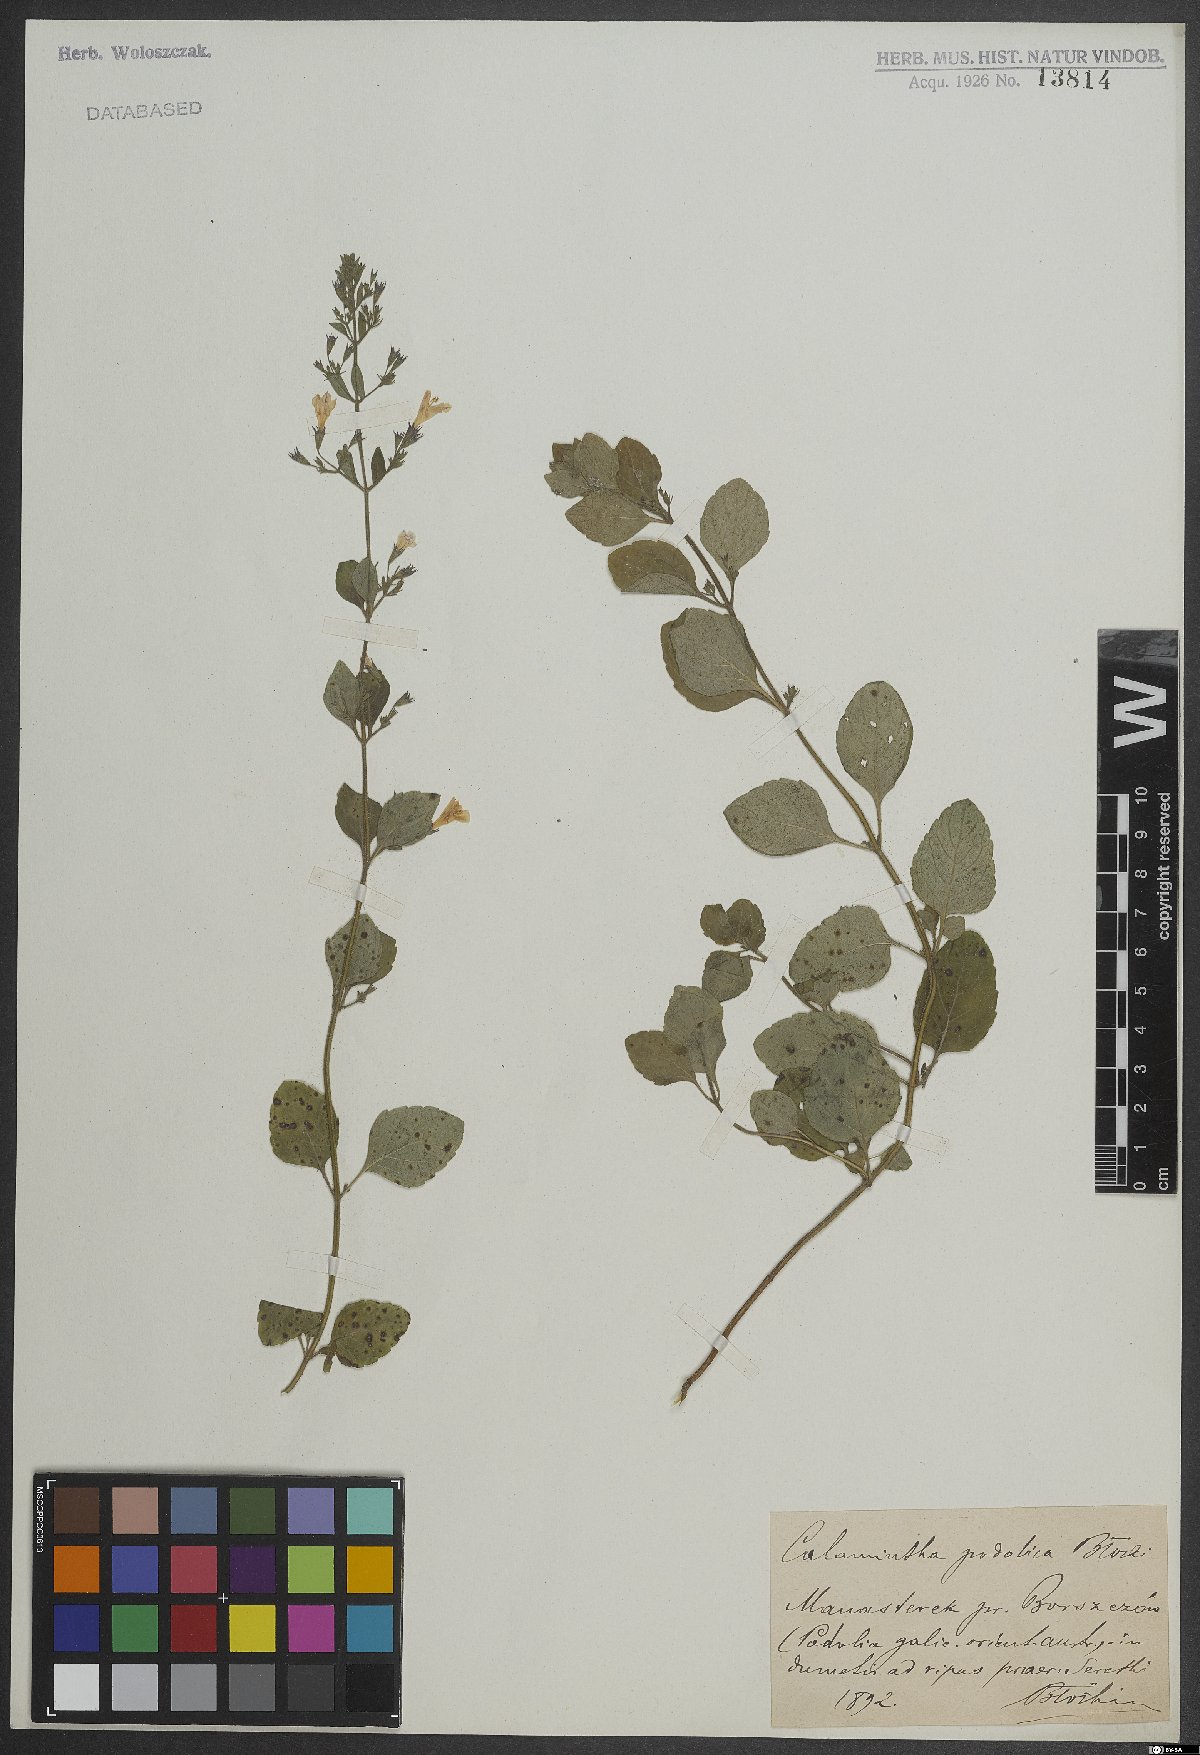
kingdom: Plantae
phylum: Tracheophyta
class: Magnoliopsida
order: Lamiales
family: Lamiaceae
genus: Calamintha
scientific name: Calamintha
